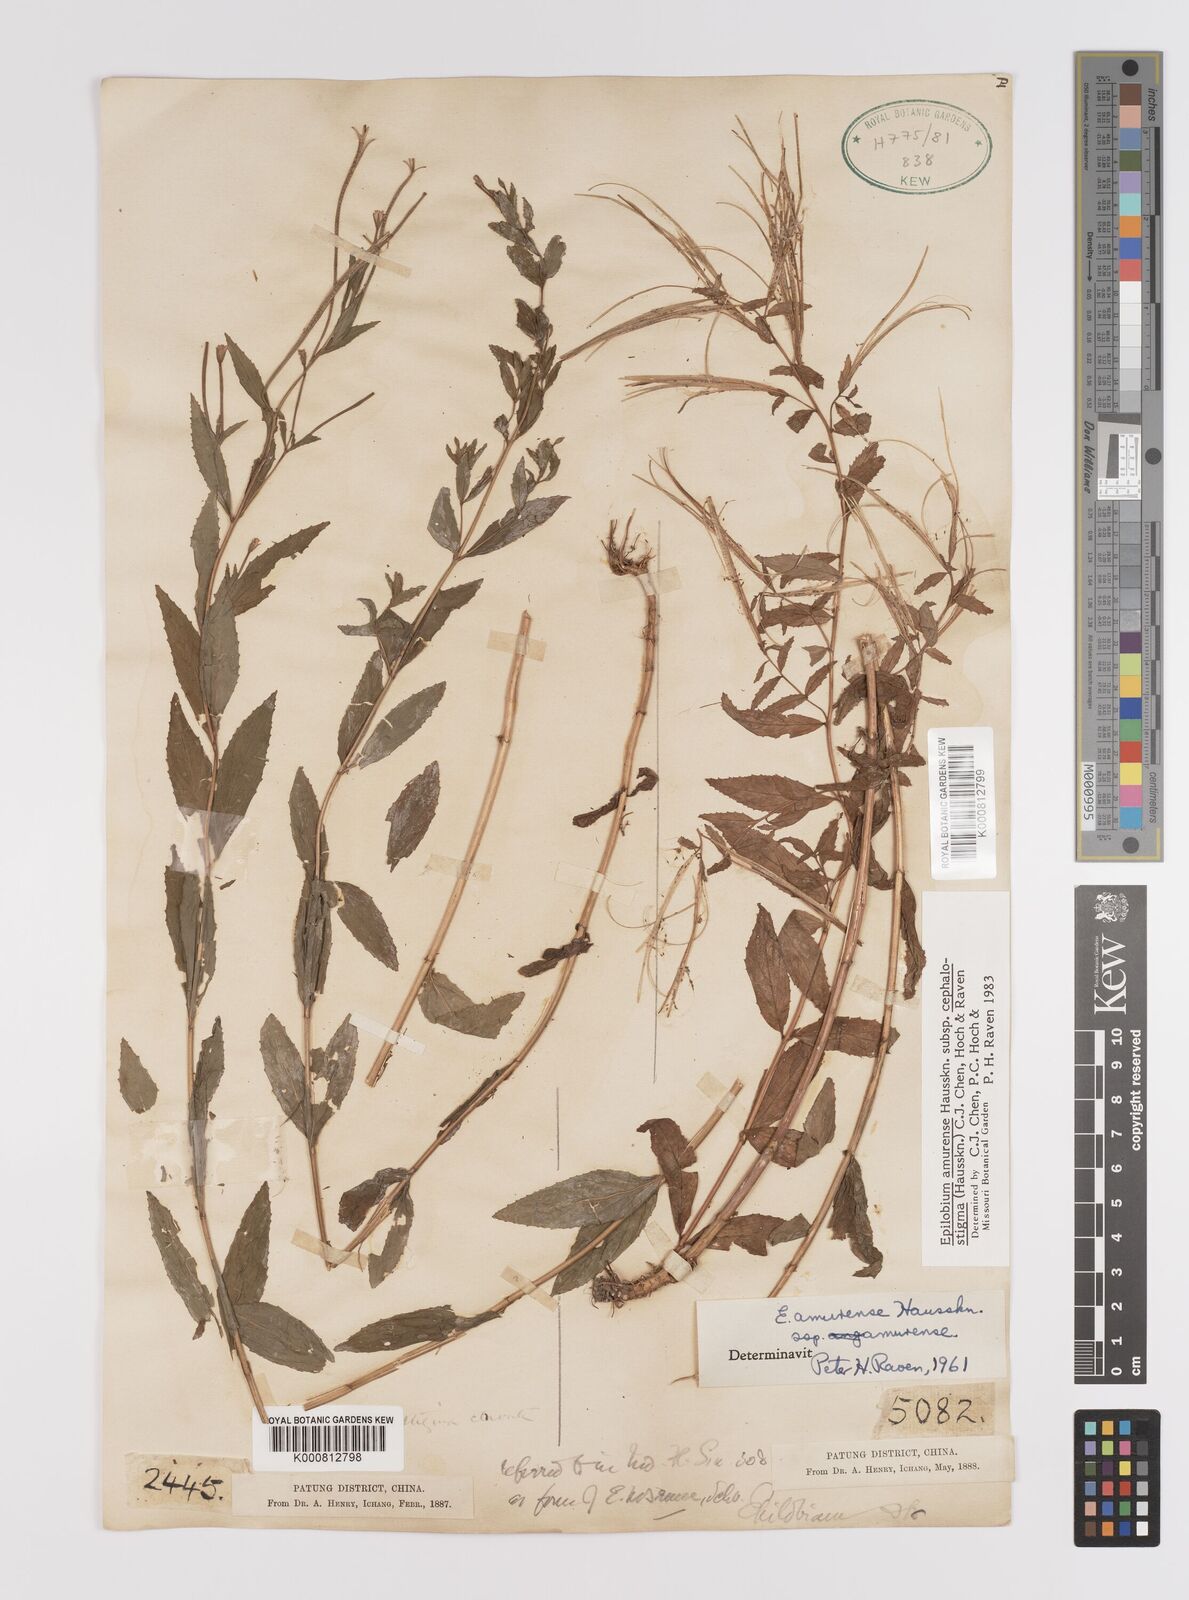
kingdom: Plantae
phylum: Tracheophyta
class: Magnoliopsida
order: Myrtales
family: Onagraceae
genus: Epilobium
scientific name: Epilobium amurense
